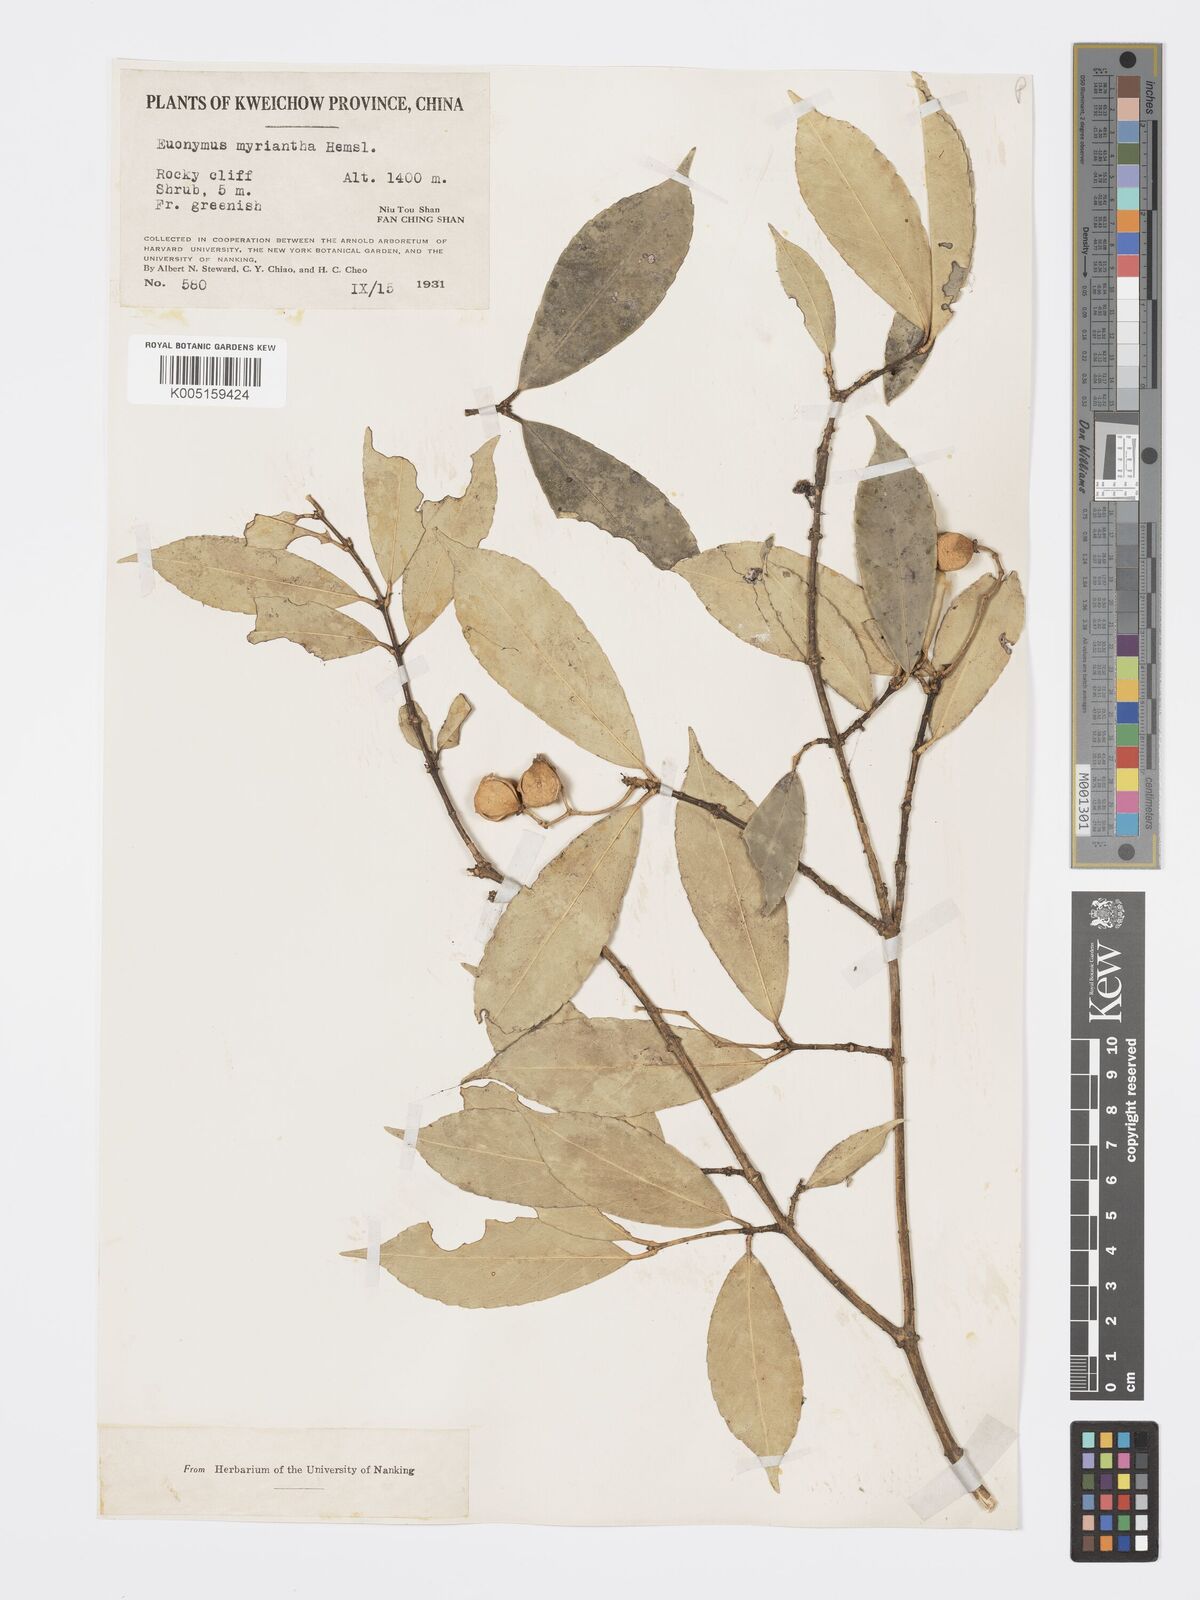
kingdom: Plantae
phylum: Tracheophyta
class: Magnoliopsida
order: Celastrales
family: Celastraceae
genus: Euonymus
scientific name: Euonymus myrianthus
